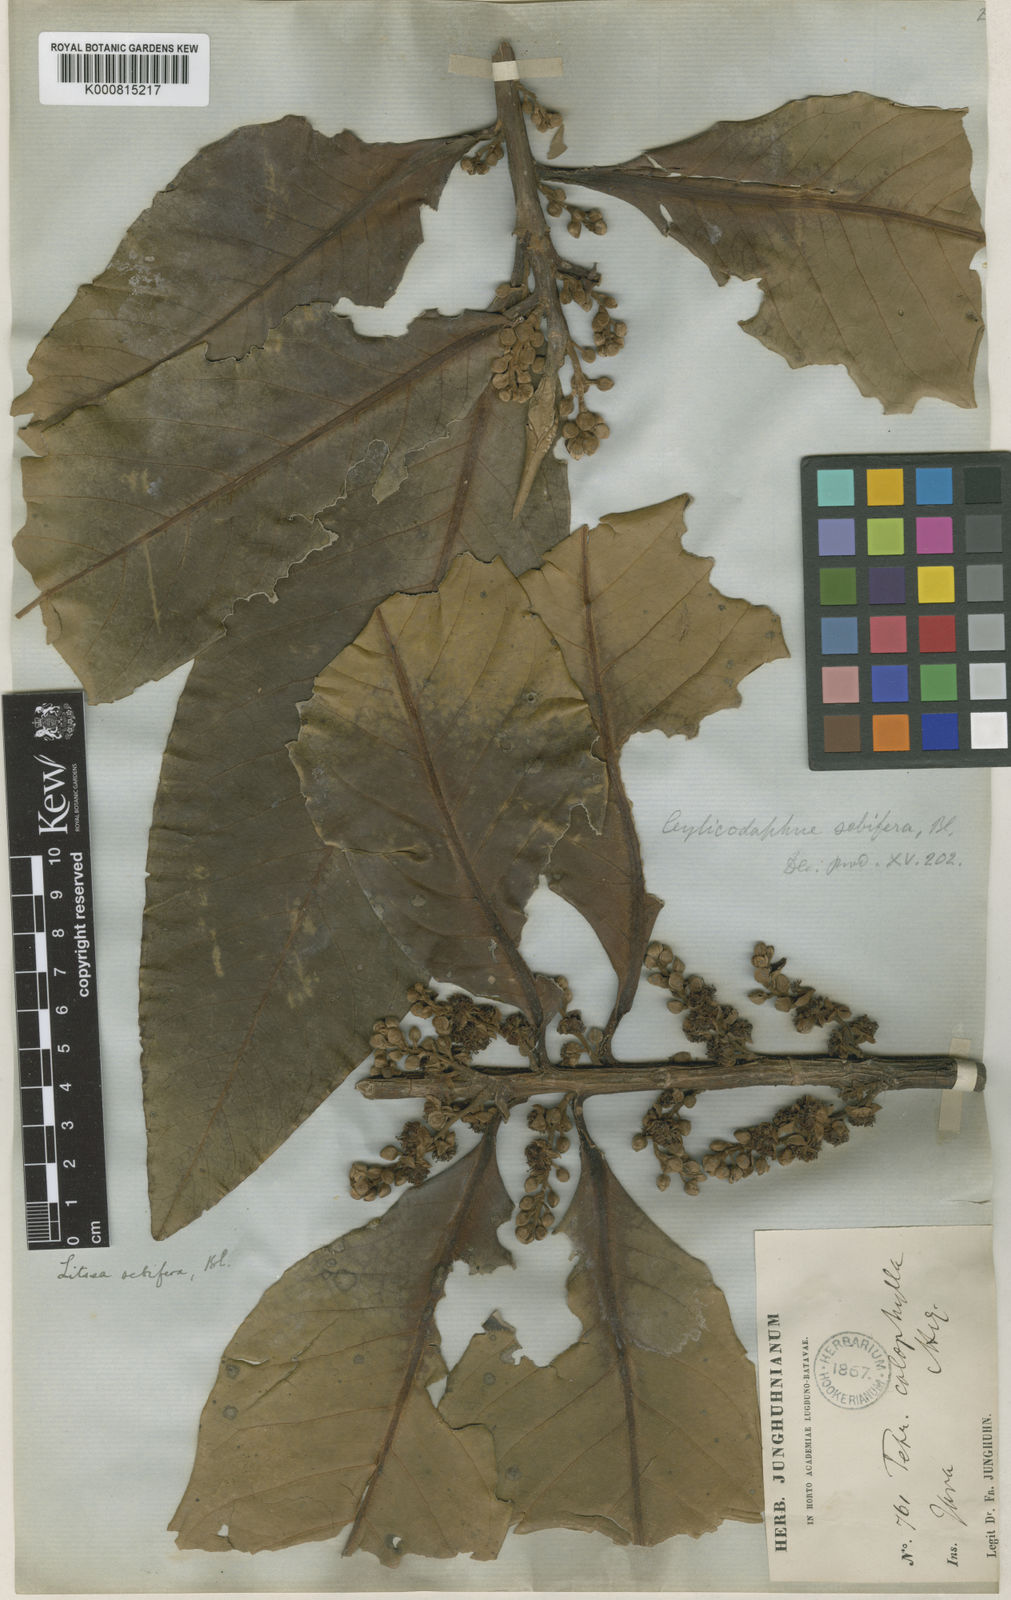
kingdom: Plantae
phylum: Tracheophyta
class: Magnoliopsida
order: Laurales
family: Lauraceae
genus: Litsea
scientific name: Litsea garciae
